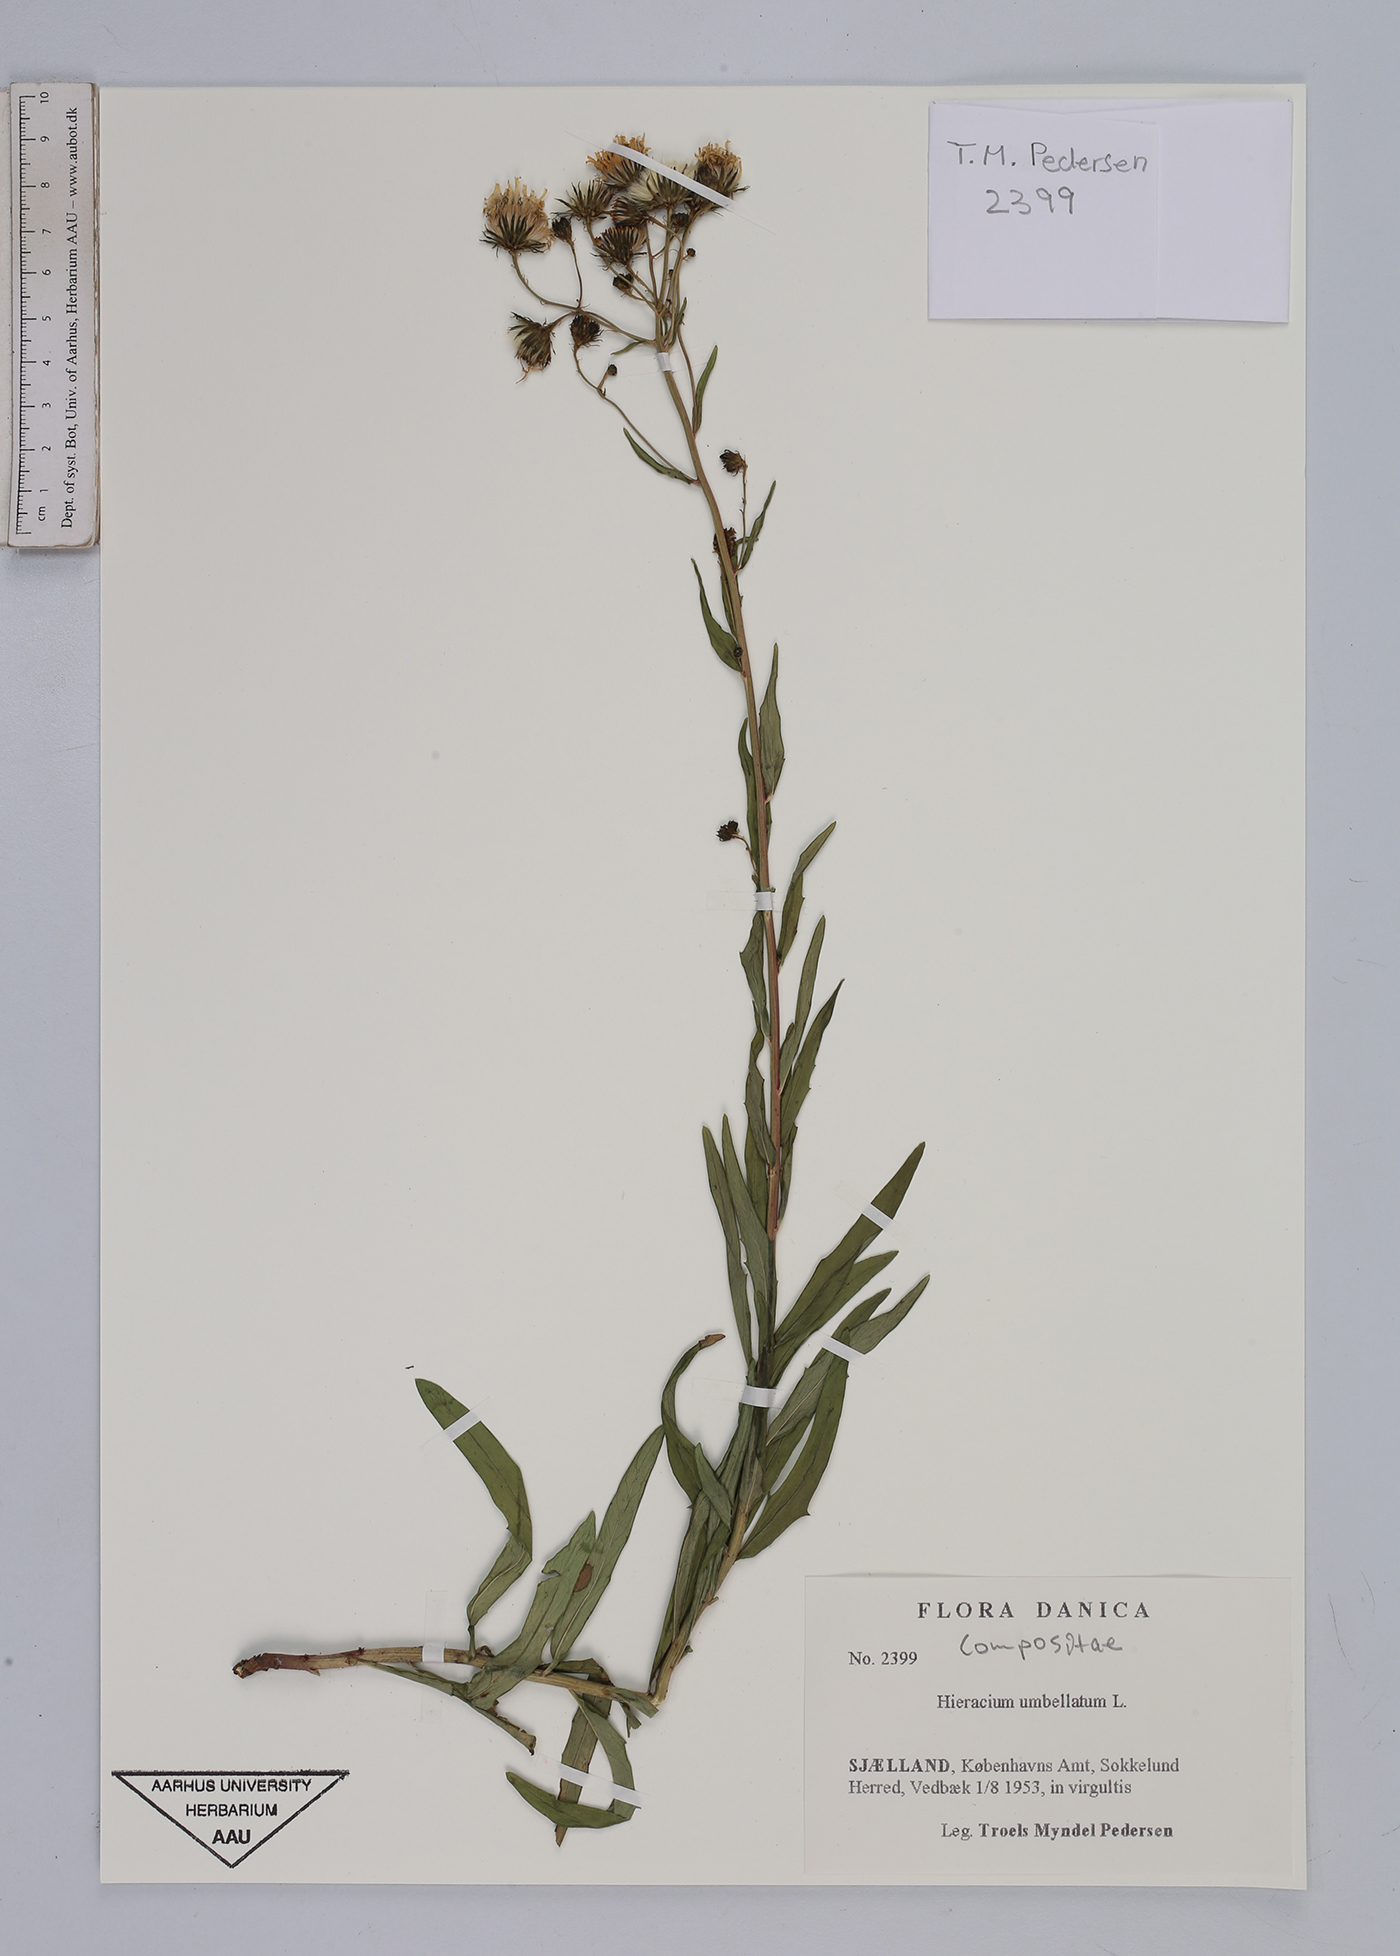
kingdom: Plantae
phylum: Tracheophyta
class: Magnoliopsida
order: Asterales
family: Asteraceae
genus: Hieracium
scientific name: Hieracium umbellatum
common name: Northern hawkweed
